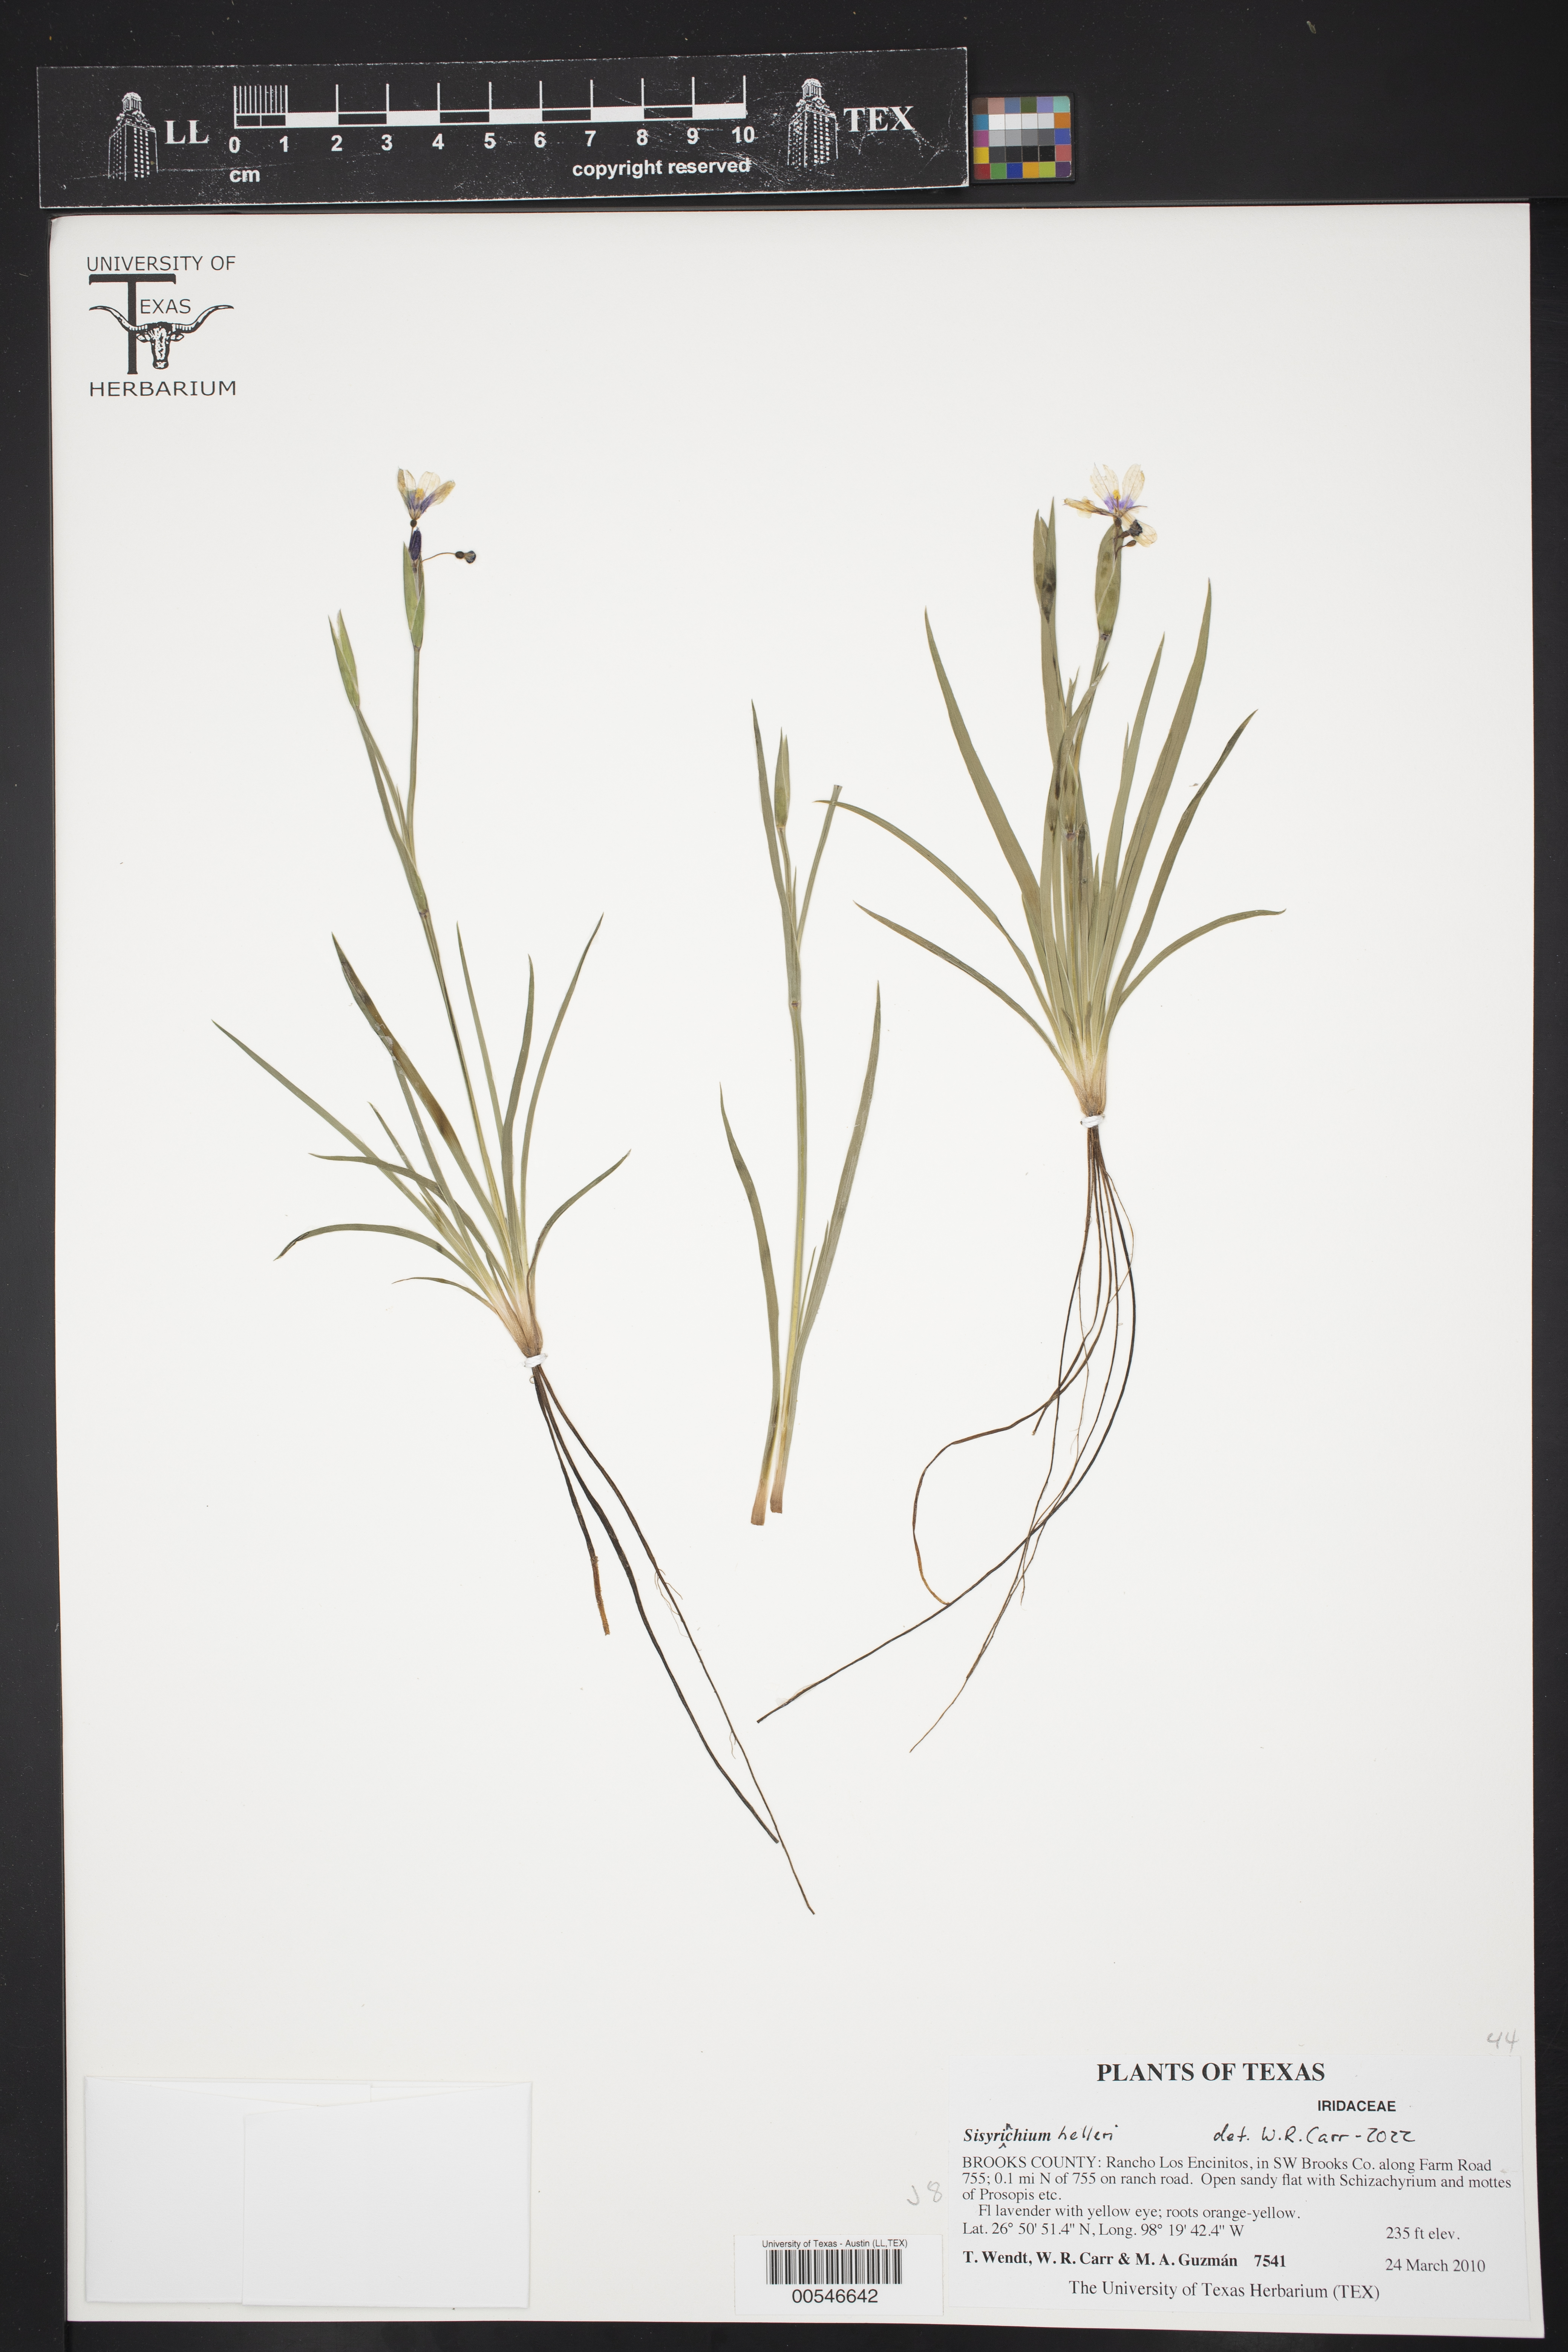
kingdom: Plantae
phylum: Tracheophyta
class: Liliopsida
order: Asparagales
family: Iridaceae
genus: Sisyrinchium
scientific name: Sisyrinchium pruinosum
